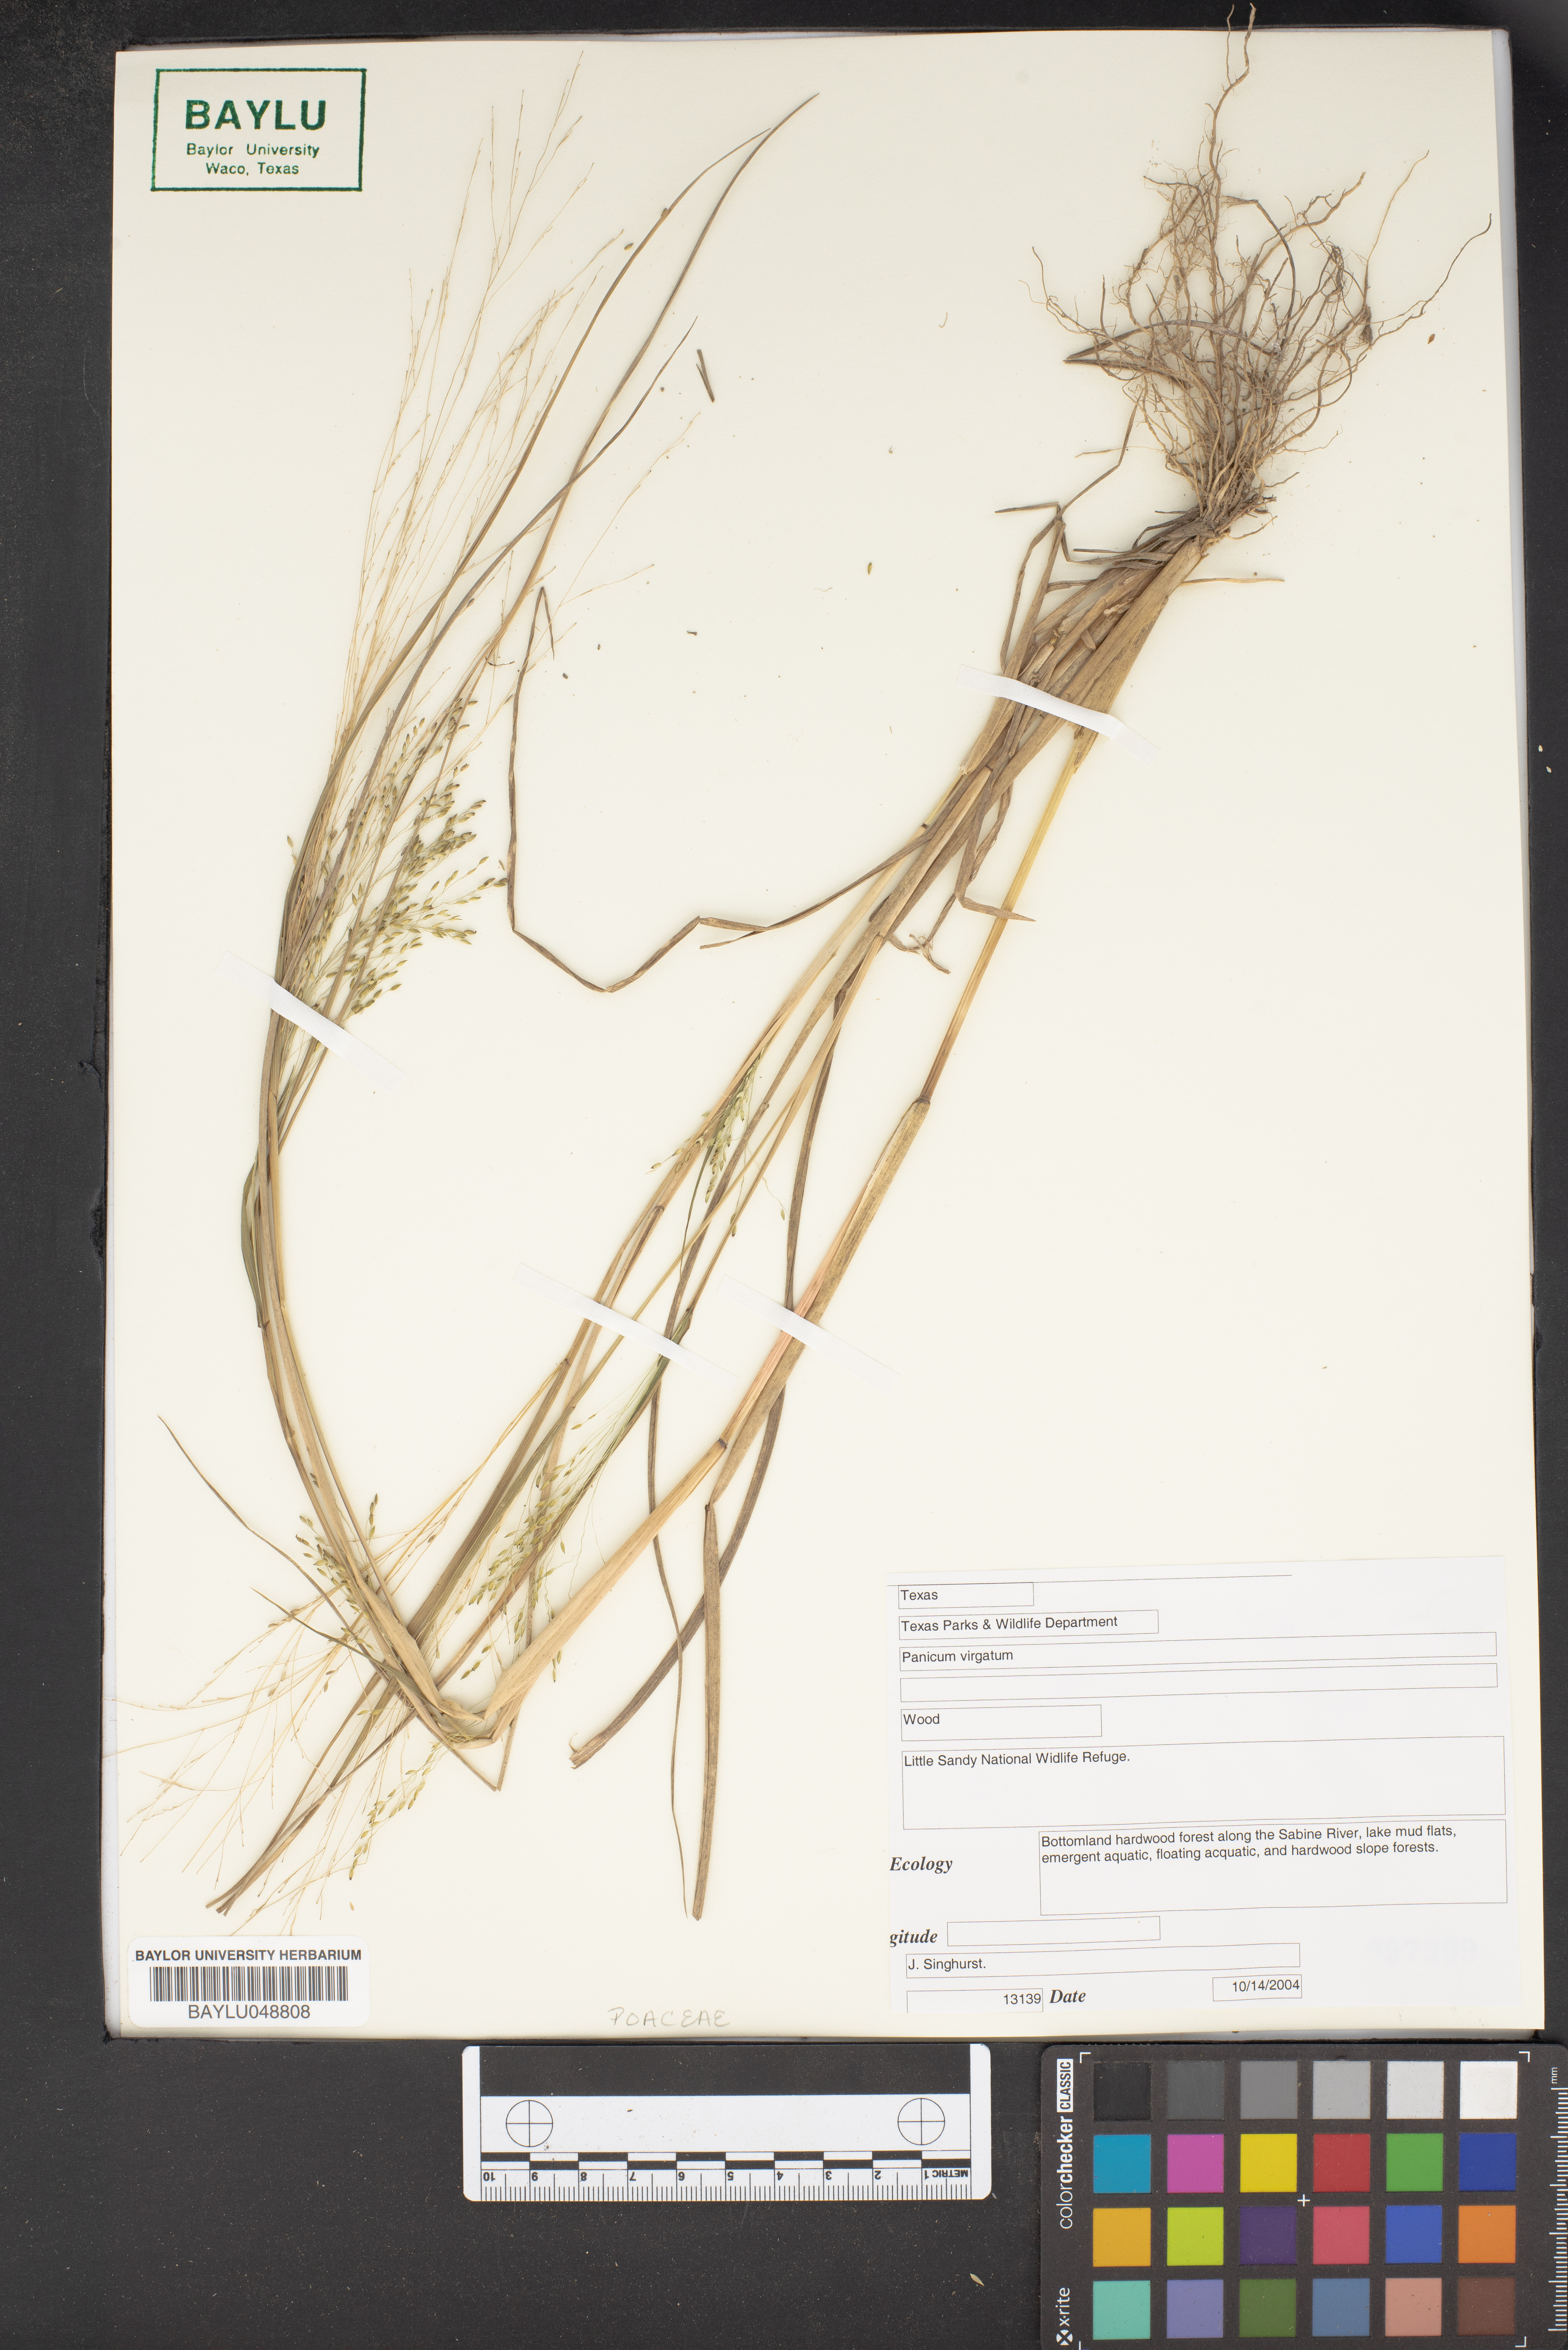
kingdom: Plantae
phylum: Tracheophyta
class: Liliopsida
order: Poales
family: Poaceae
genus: Panicum
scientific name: Panicum virgatum
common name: Switchgrass
